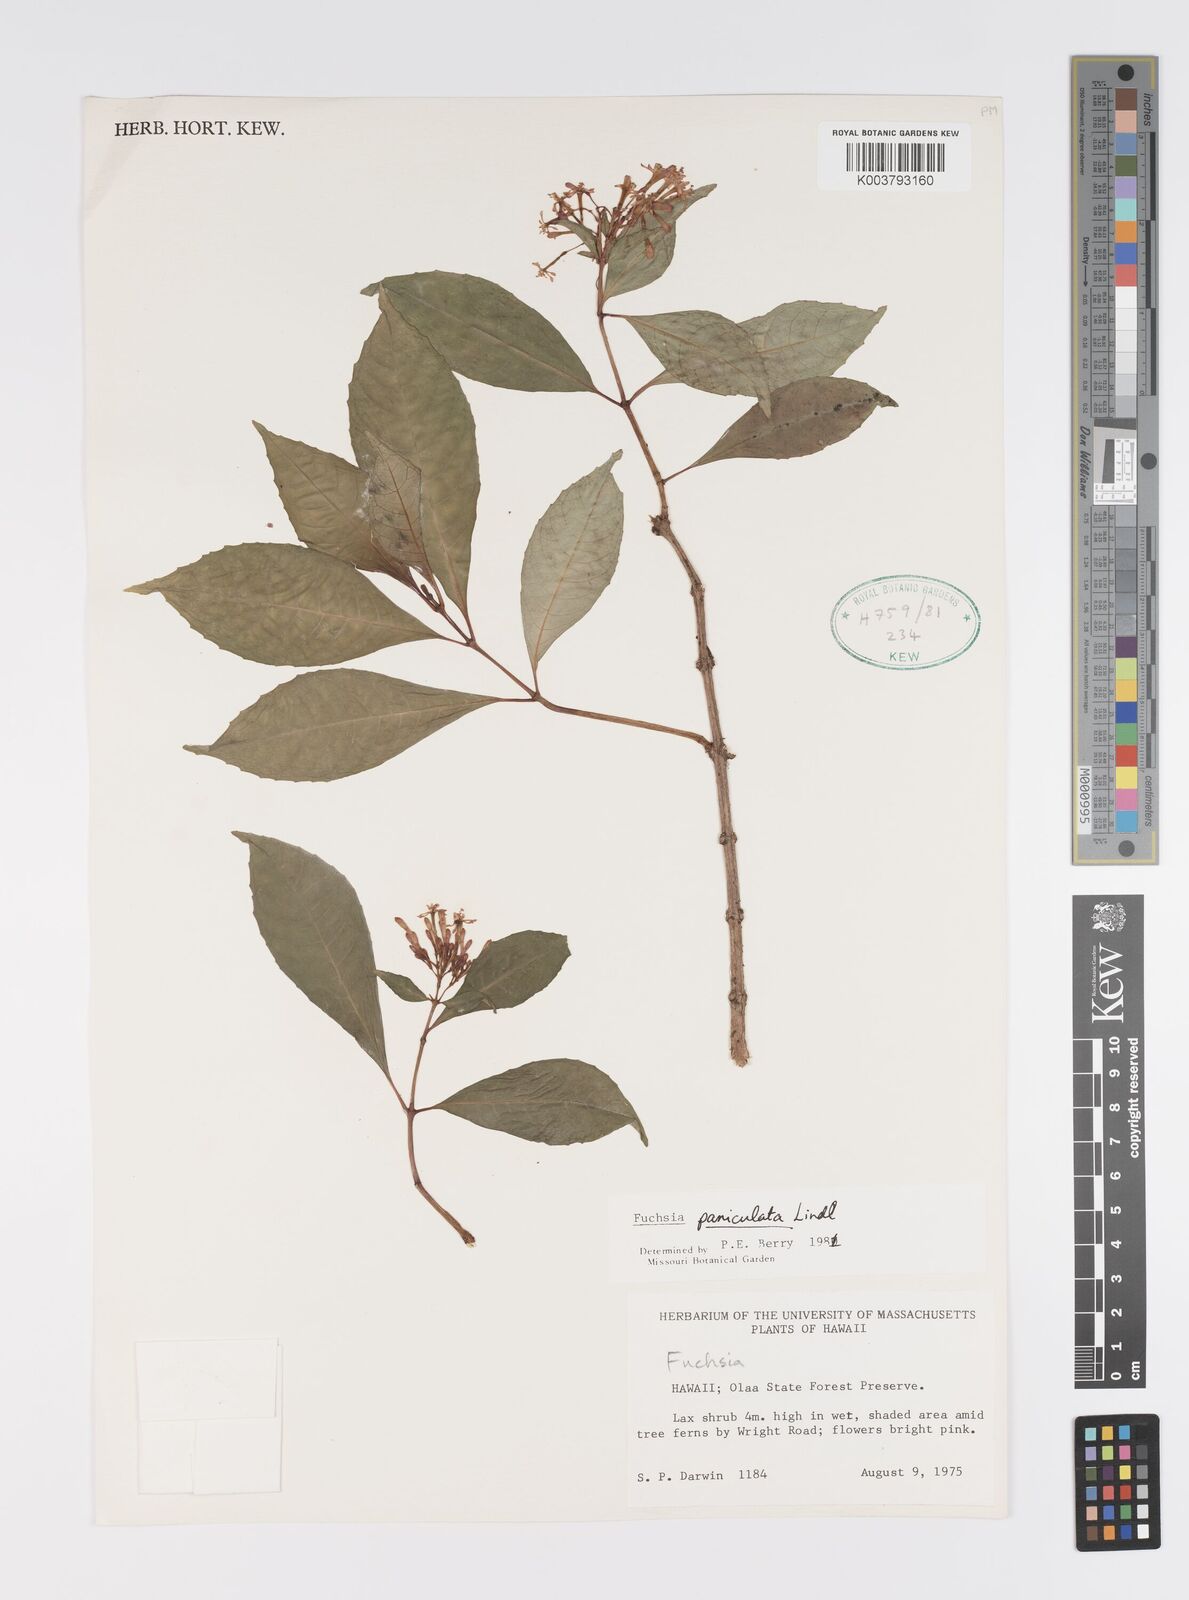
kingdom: Plantae
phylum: Tracheophyta
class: Magnoliopsida
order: Myrtales
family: Onagraceae
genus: Fuchsia
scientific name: Fuchsia paniculata
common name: Shrubby fuchsia
